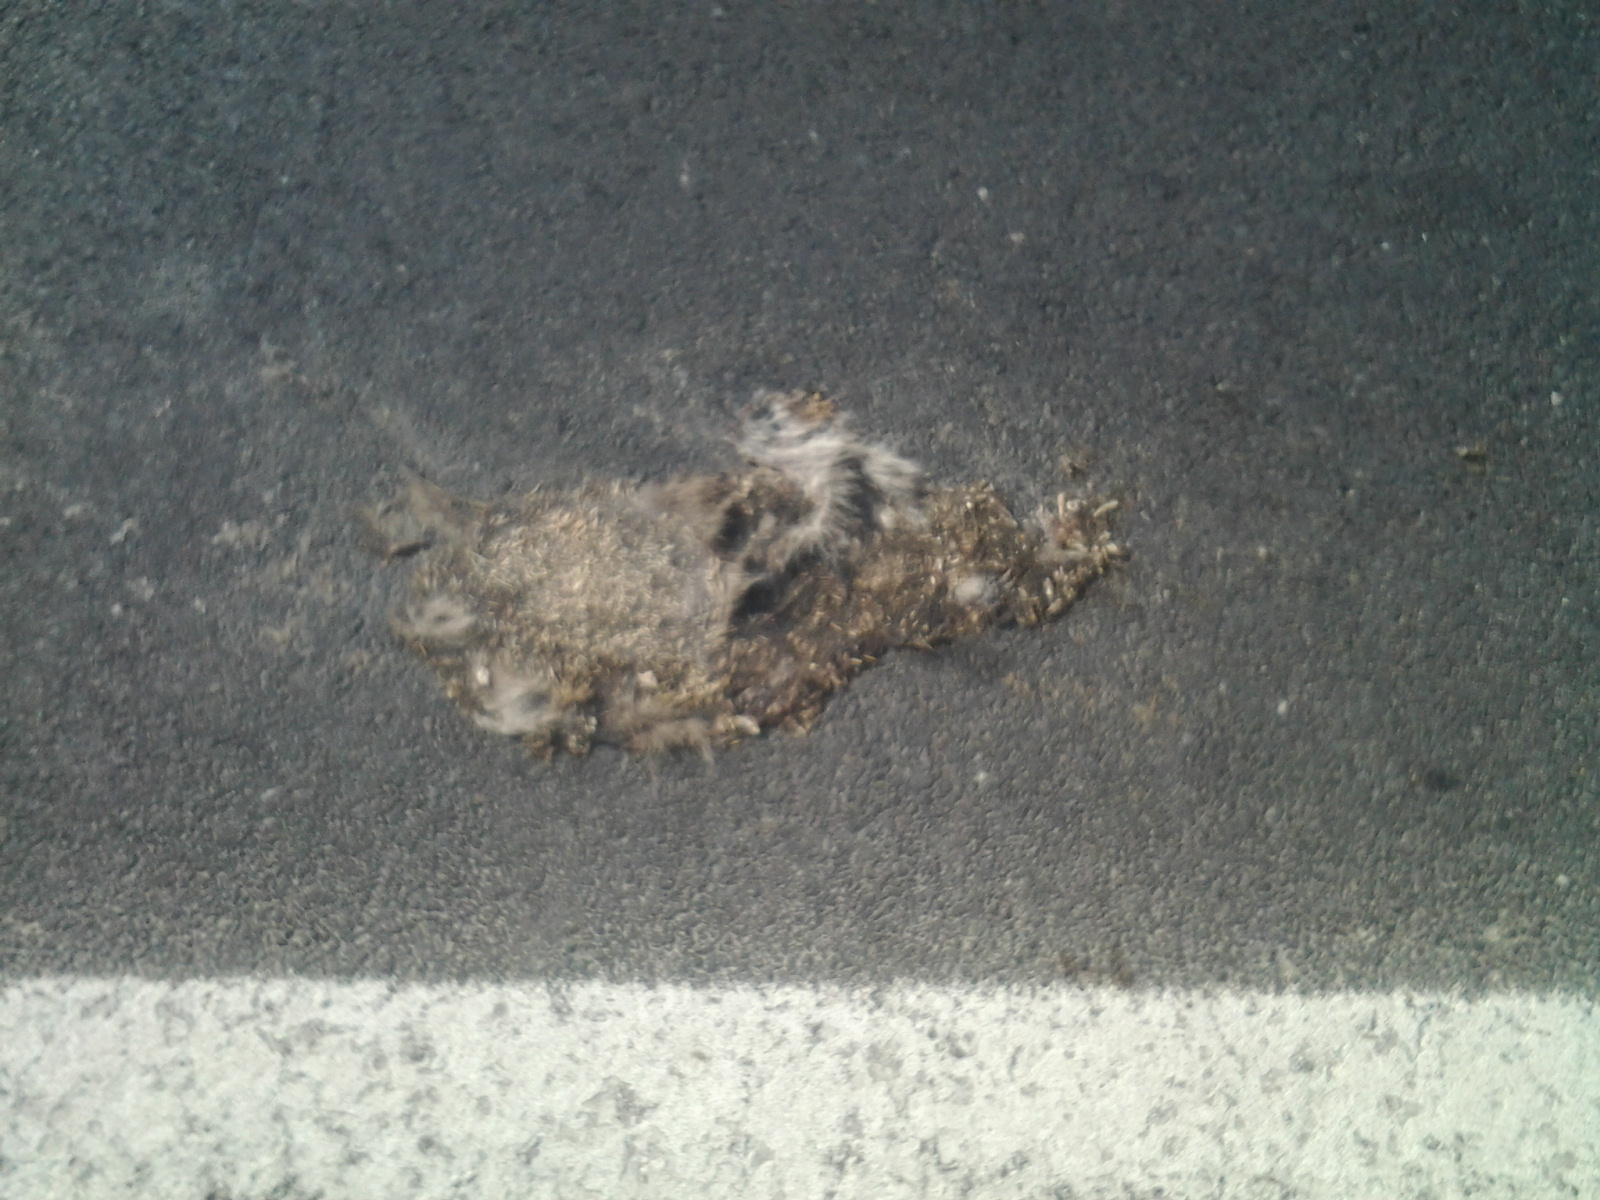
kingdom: Animalia
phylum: Chordata
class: Mammalia
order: Erinaceomorpha
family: Erinaceidae
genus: Erinaceus
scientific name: Erinaceus
